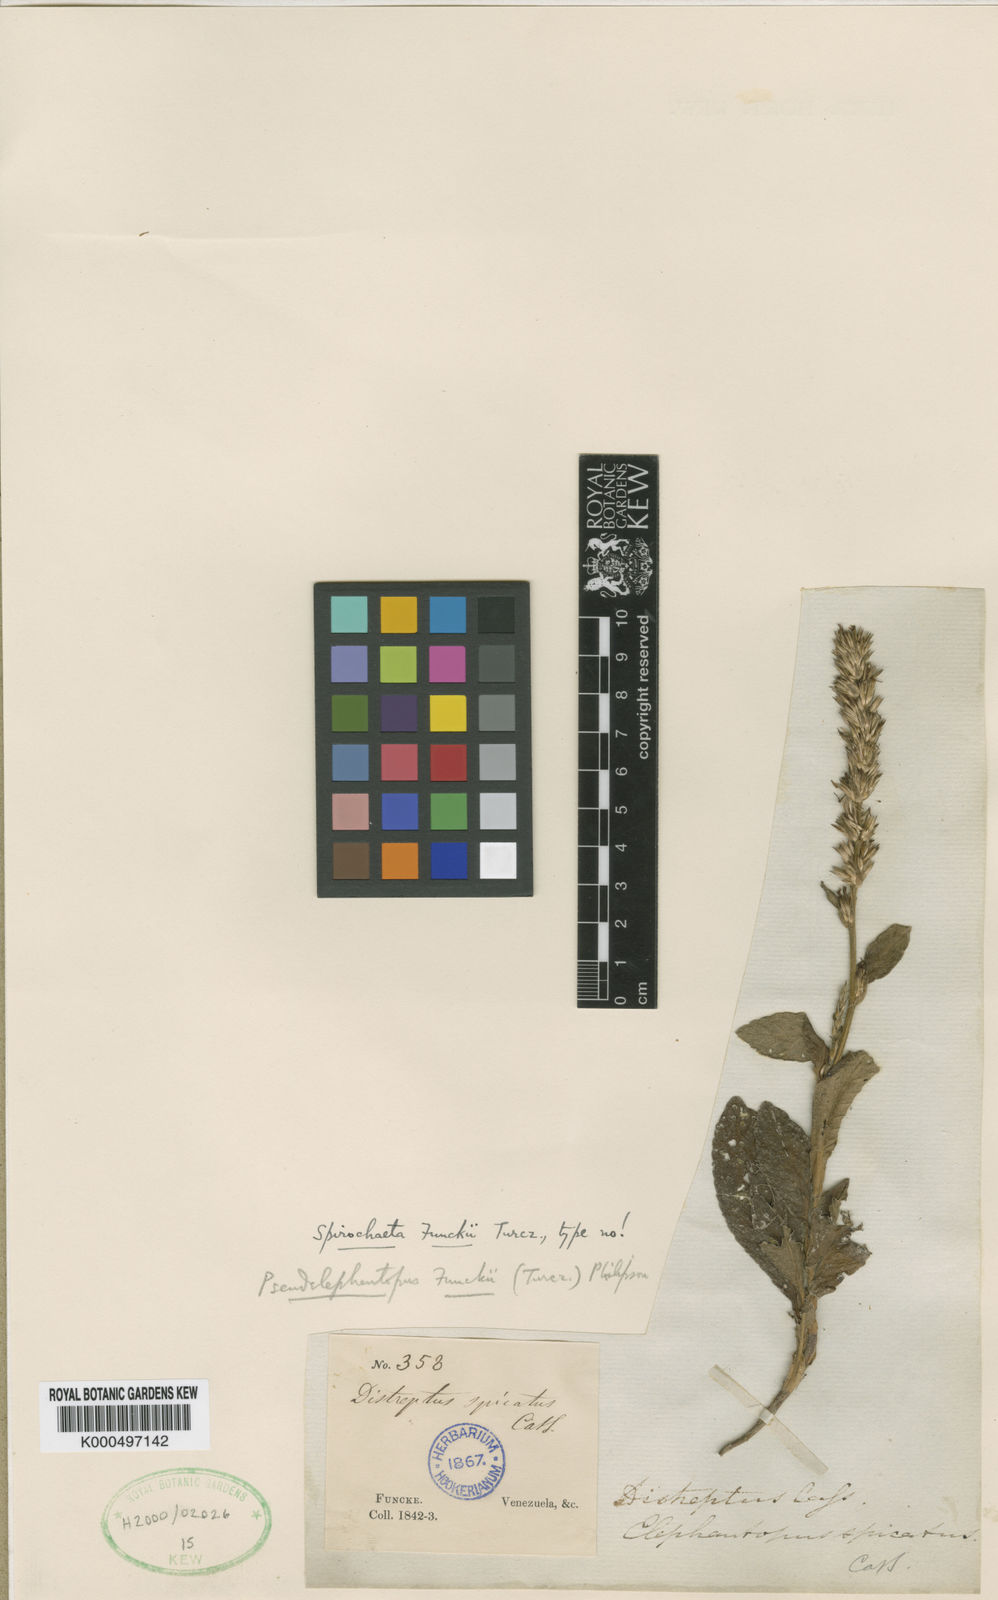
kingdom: Plantae
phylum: Tracheophyta
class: Magnoliopsida
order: Asterales
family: Asteraceae
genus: Pseudelephantopus
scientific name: Pseudelephantopus spiralis
